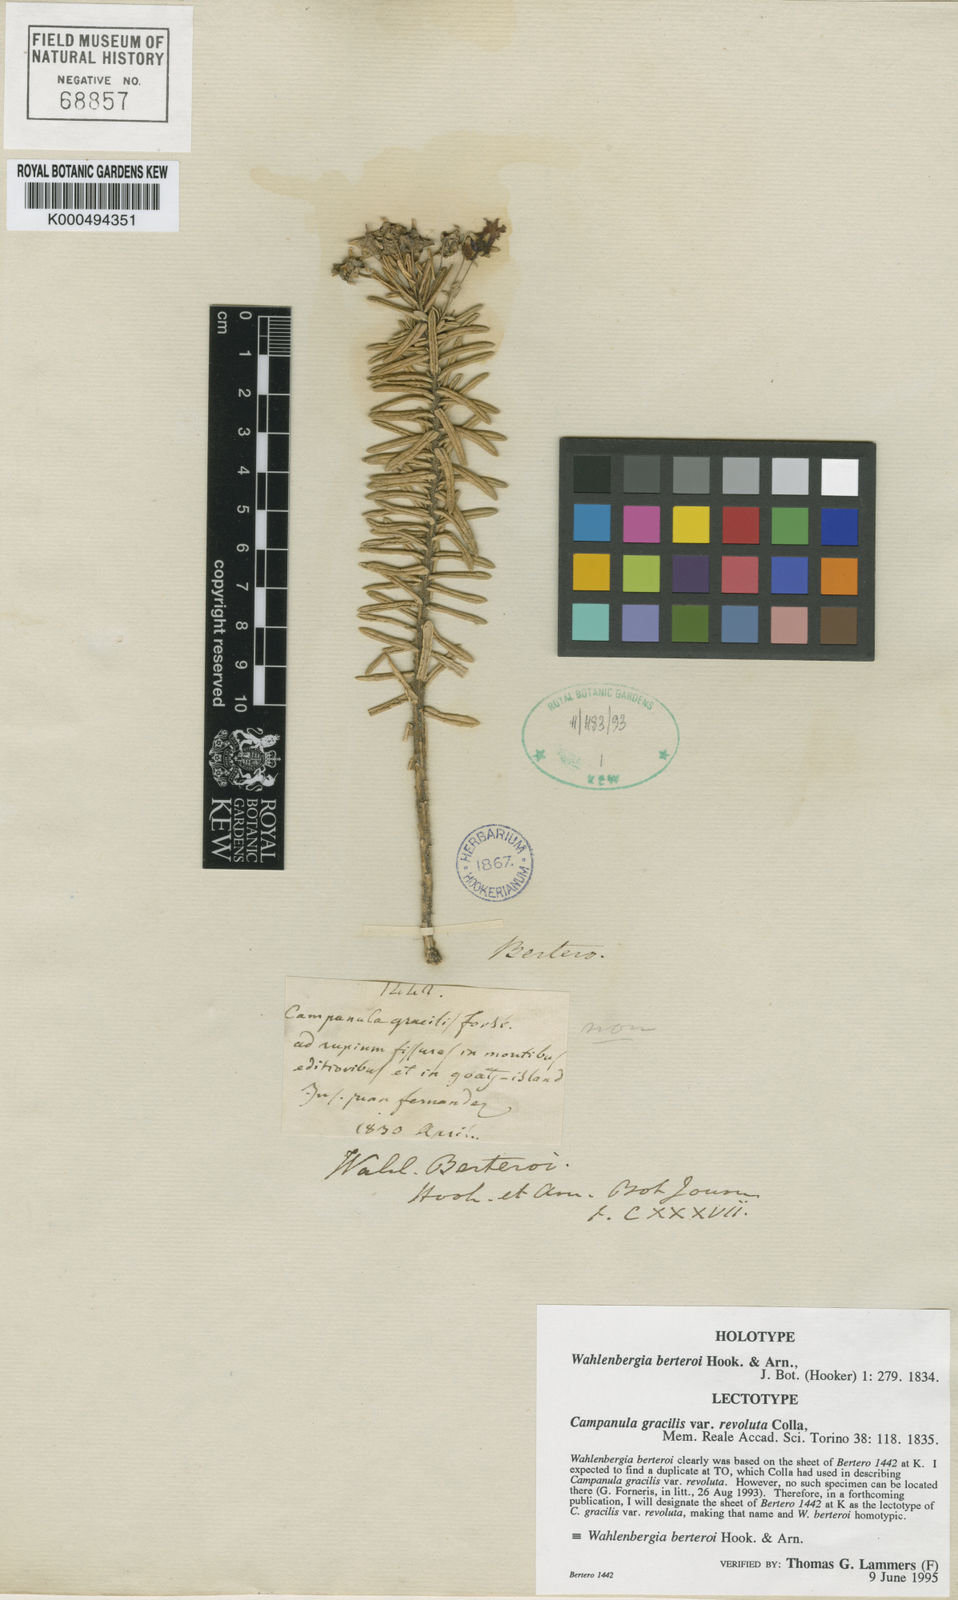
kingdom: Plantae
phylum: Tracheophyta
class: Magnoliopsida
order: Asterales
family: Campanulaceae
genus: Wahlenbergia
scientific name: Wahlenbergia berteroi
